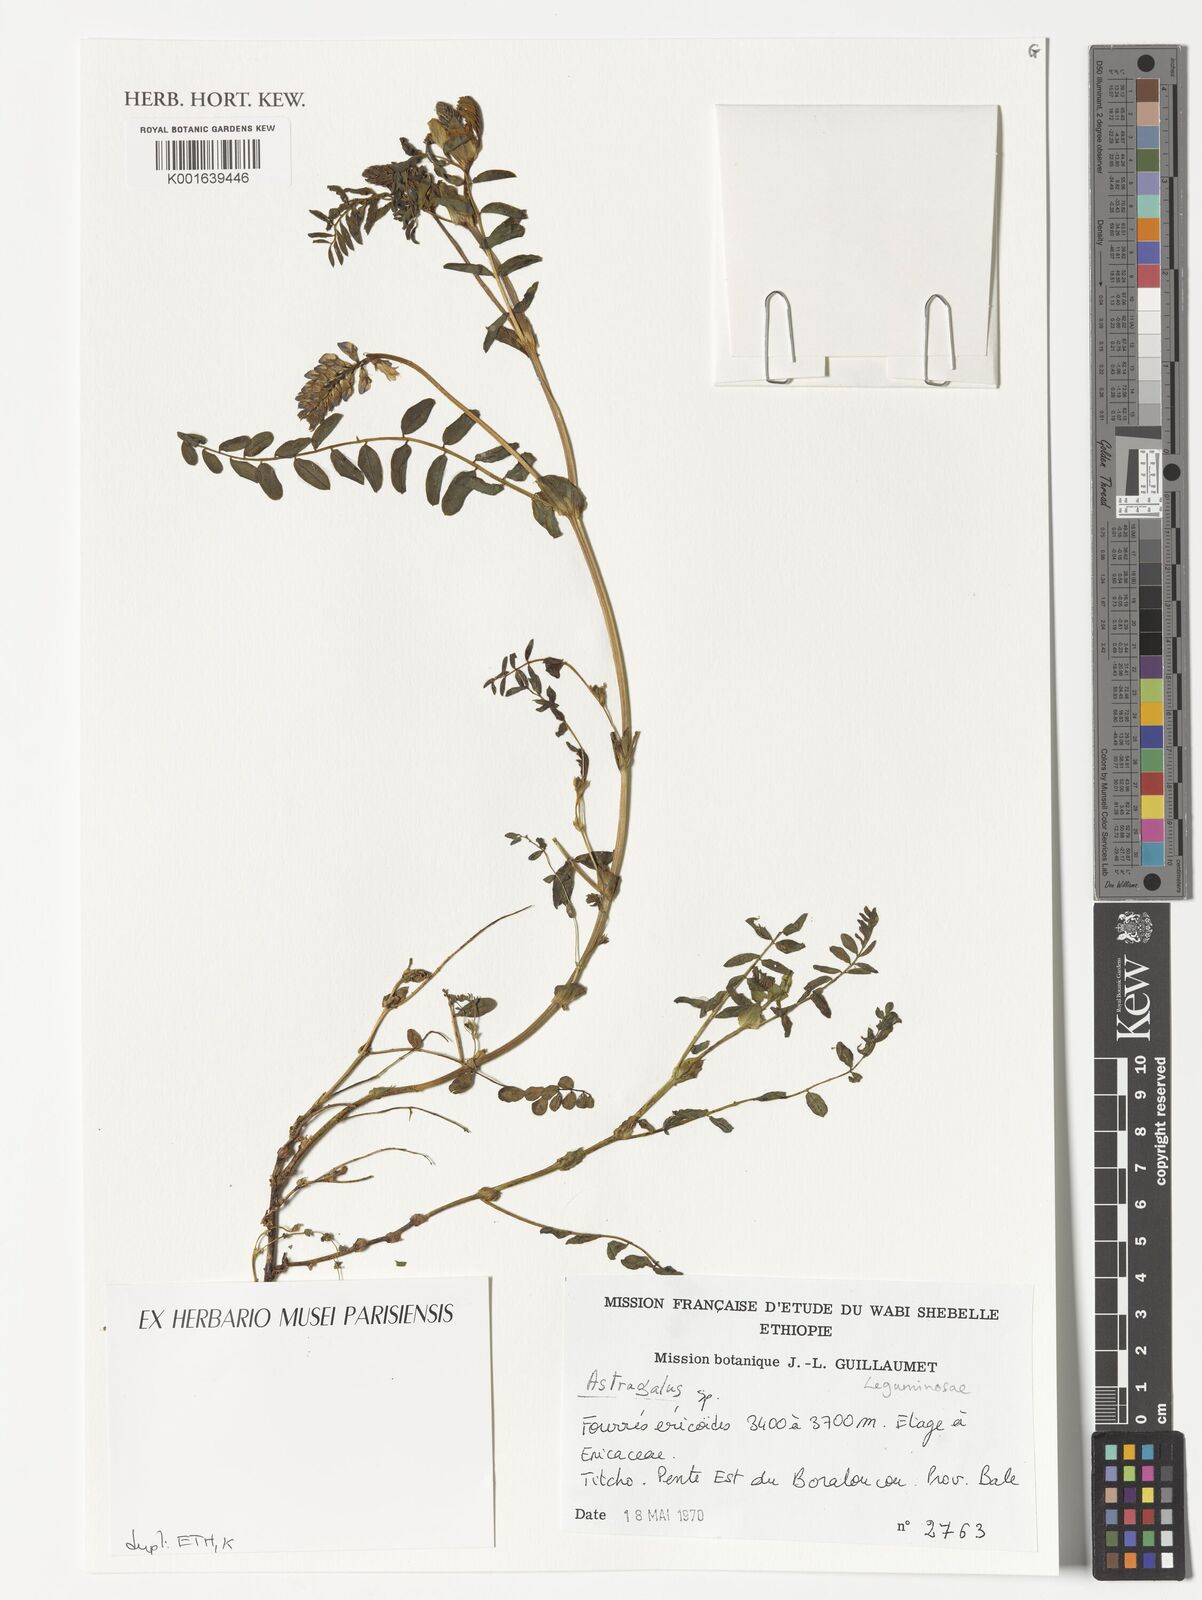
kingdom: Plantae
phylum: Tracheophyta
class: Magnoliopsida
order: Fabales
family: Fabaceae
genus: Astragalus
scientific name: Astragalus atropilosulus
